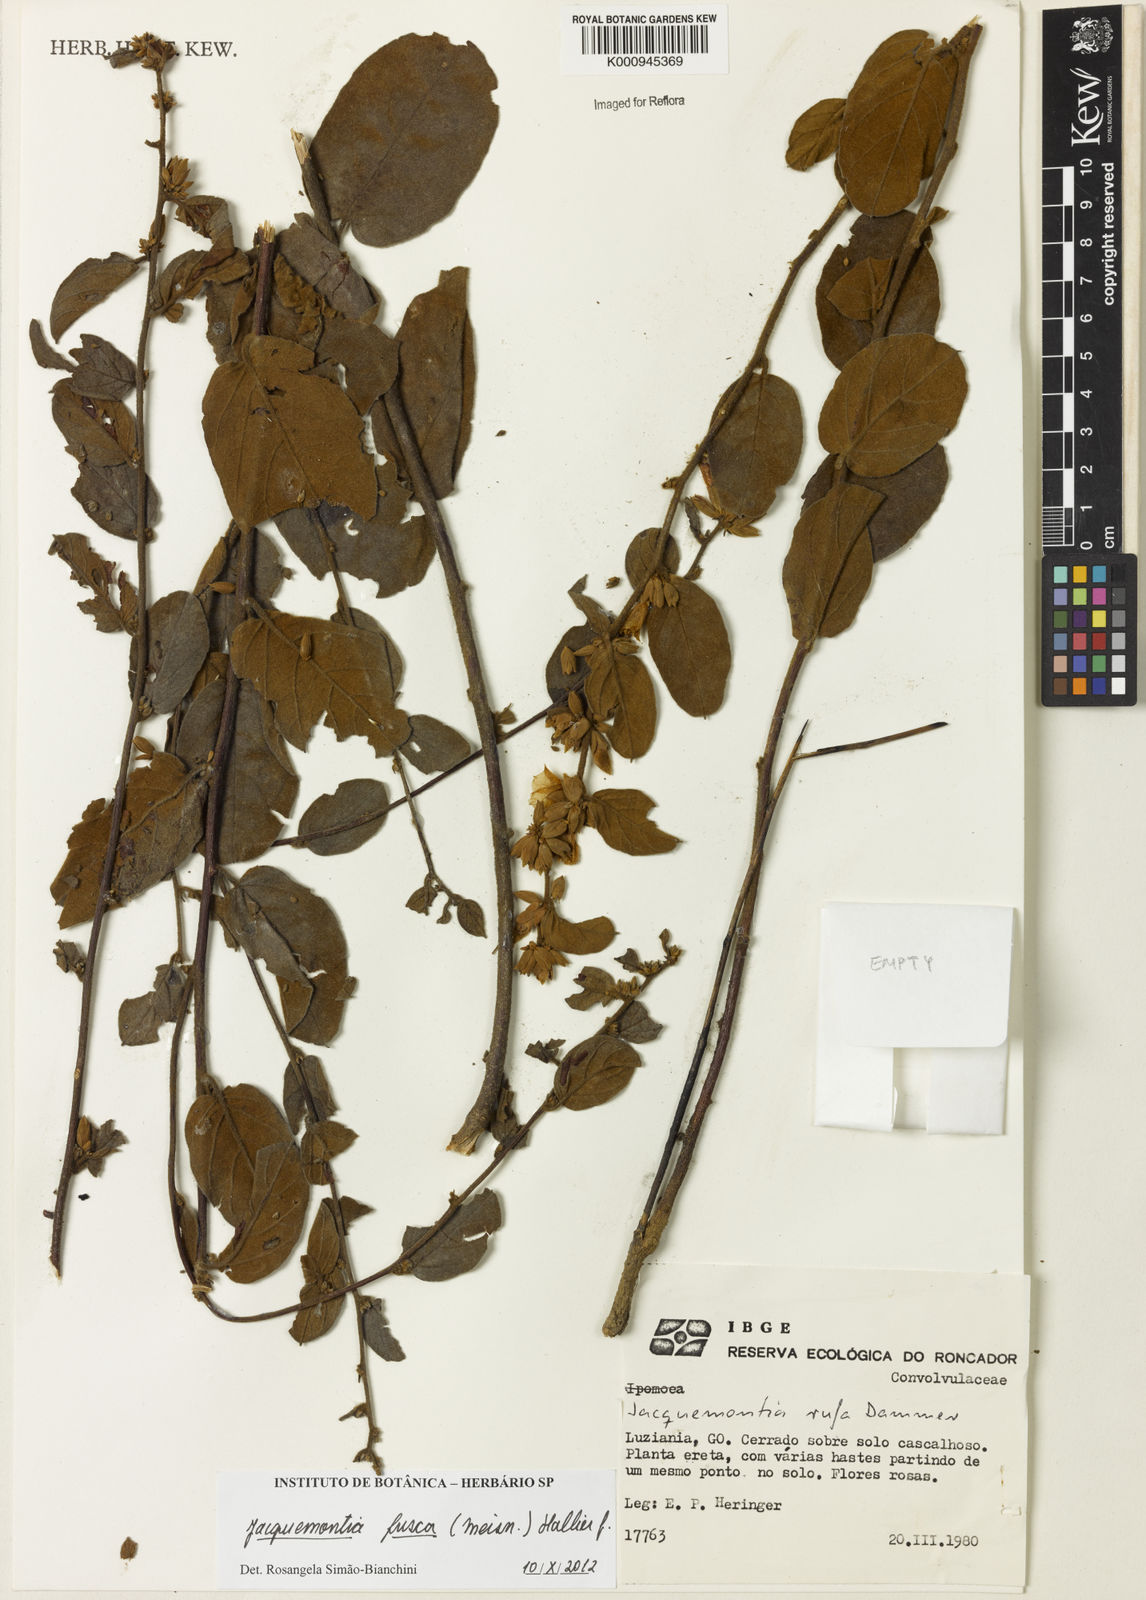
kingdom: Plantae
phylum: Tracheophyta
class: Magnoliopsida
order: Solanales
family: Convolvulaceae
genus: Jacquemontia
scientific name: Jacquemontia fusca
